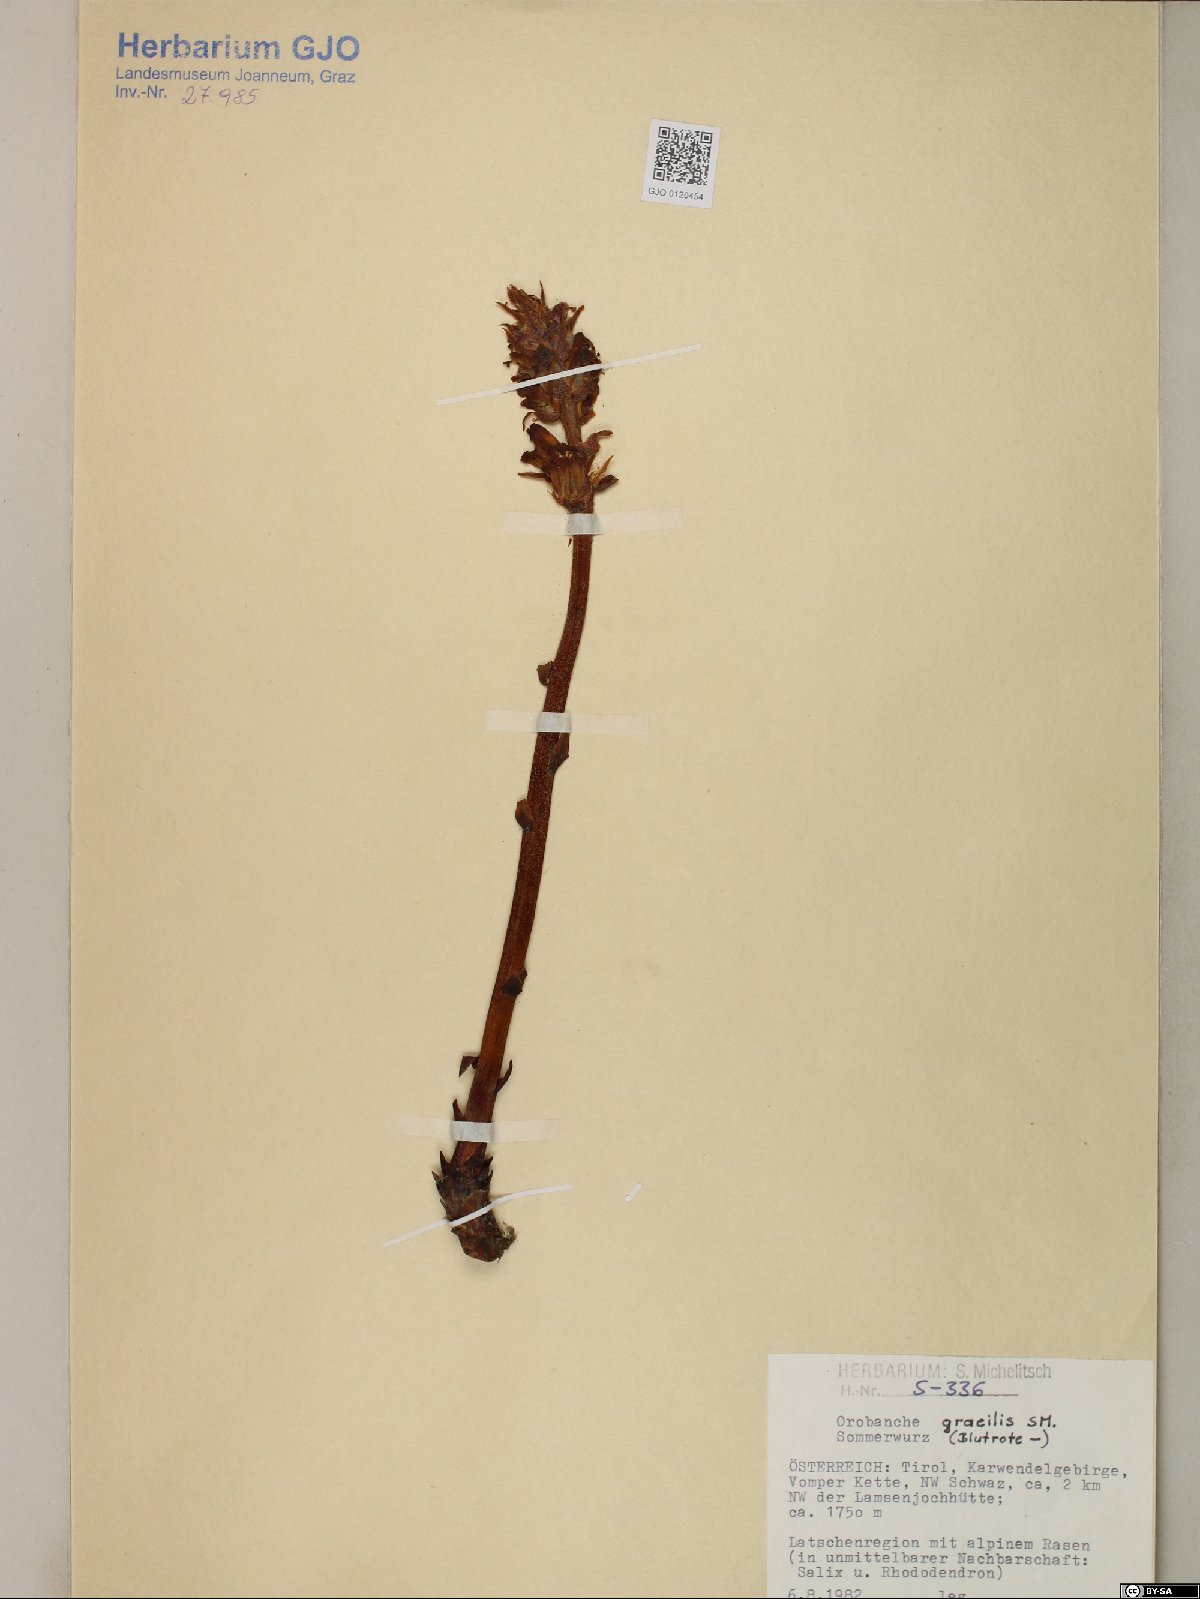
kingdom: Plantae
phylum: Tracheophyta
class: Magnoliopsida
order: Lamiales
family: Orobanchaceae
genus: Orobanche
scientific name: Orobanche gracilis
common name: Slender broomrape
